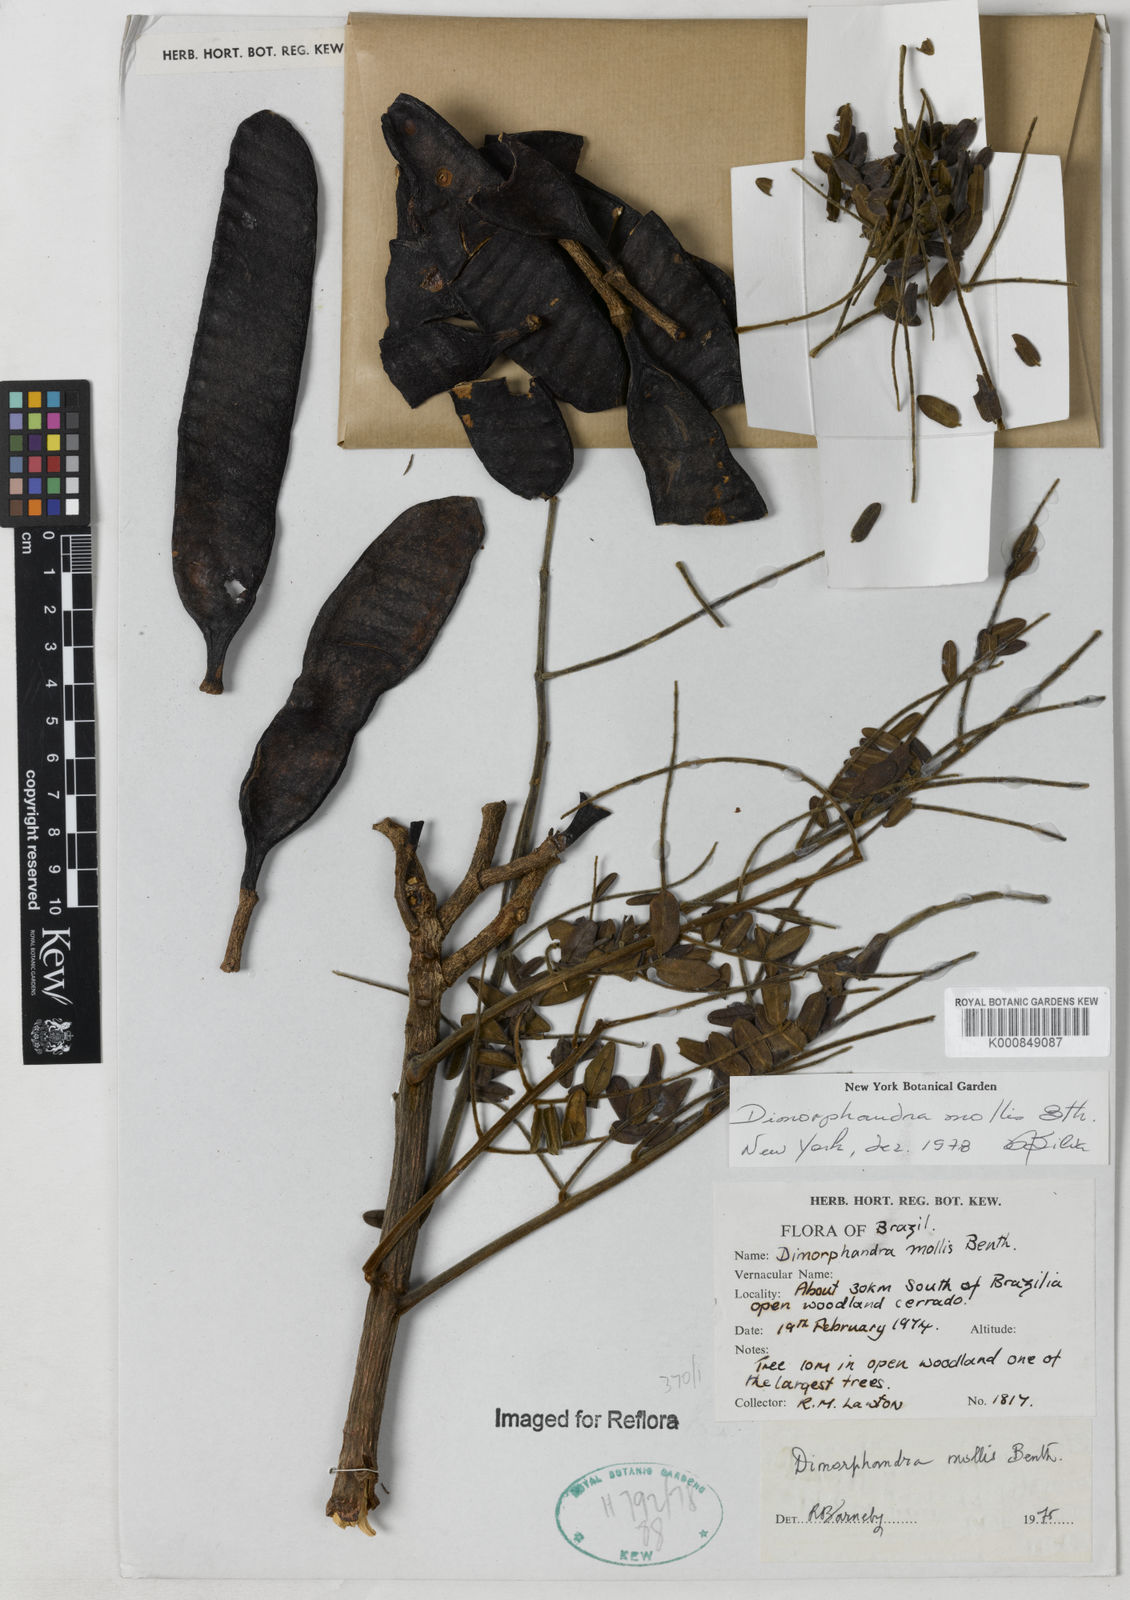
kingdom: Plantae
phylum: Tracheophyta
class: Magnoliopsida
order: Fabales
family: Fabaceae
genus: Dimorphandra
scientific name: Dimorphandra mollis
